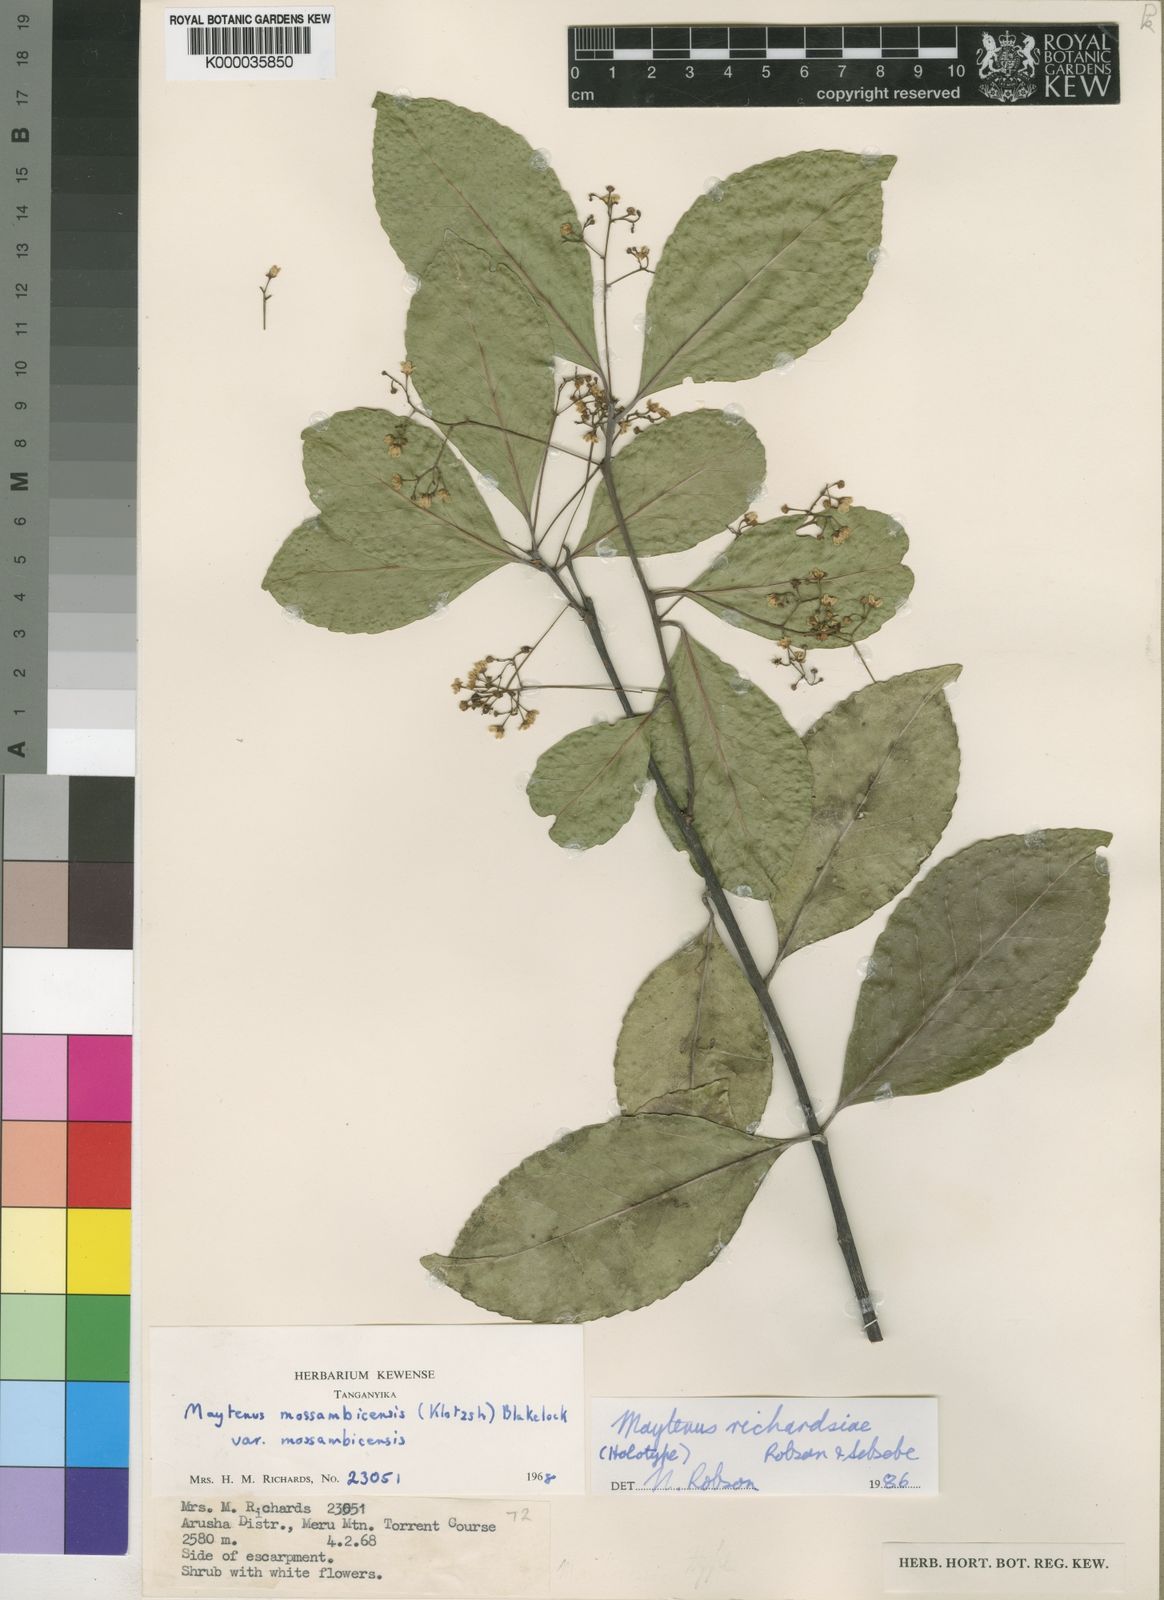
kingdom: Plantae
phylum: Tracheophyta
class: Magnoliopsida
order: Celastrales
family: Celastraceae
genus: Gymnosporia
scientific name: Gymnosporia richardsiae
